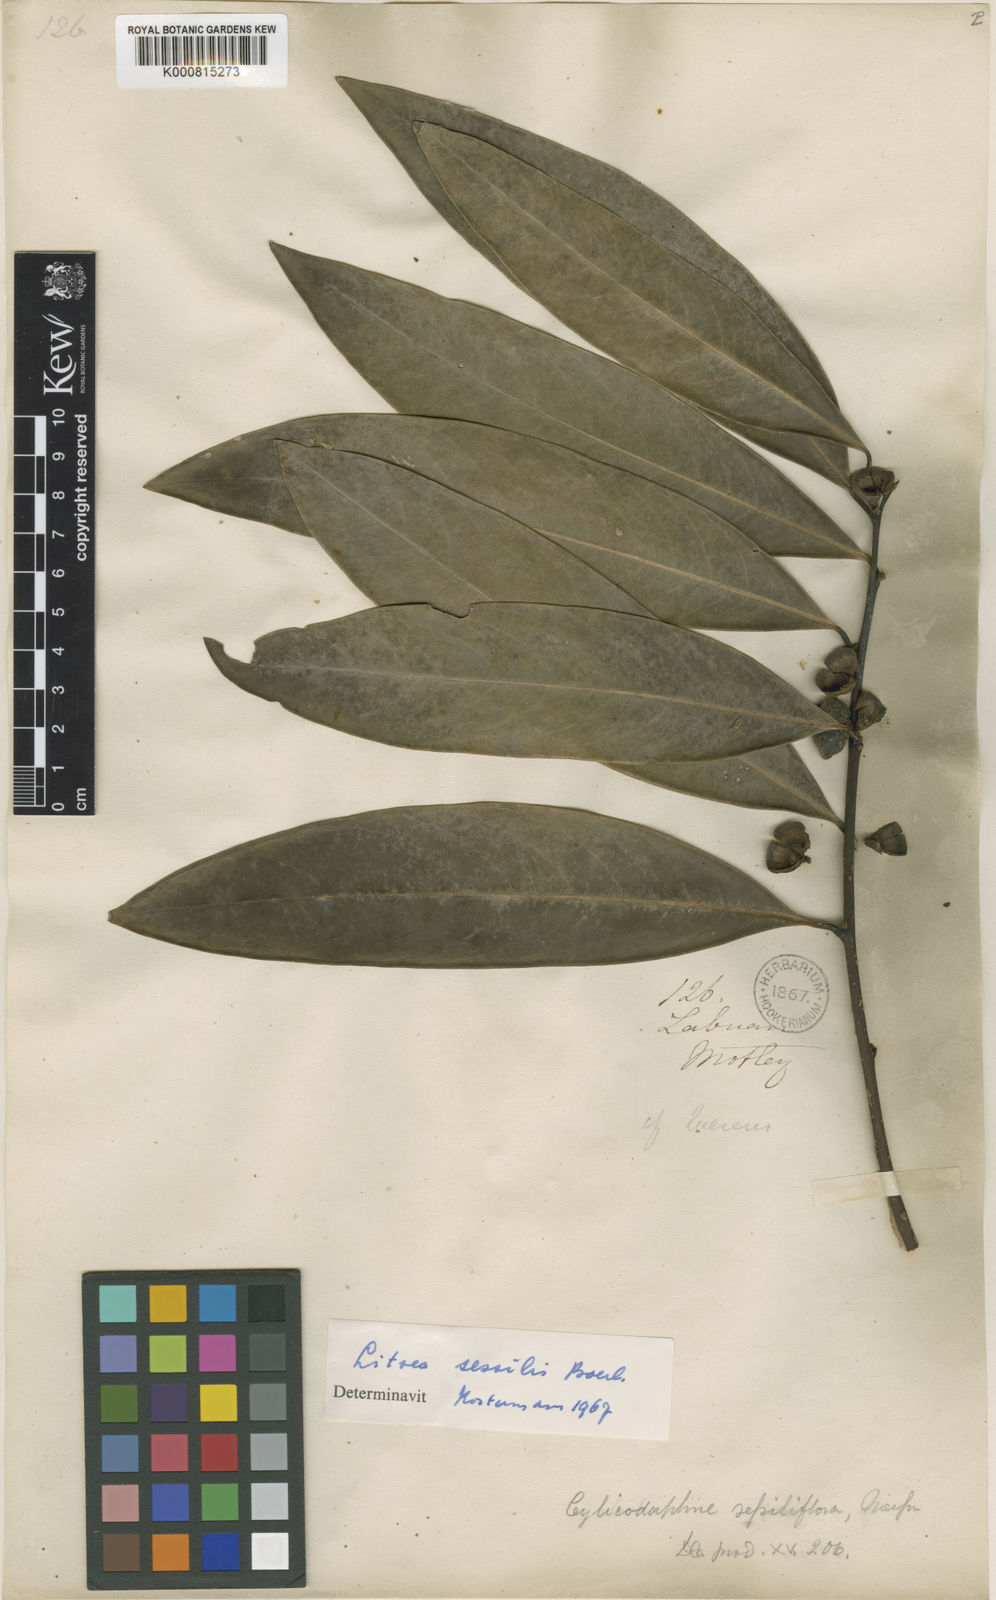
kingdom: Plantae
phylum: Tracheophyta
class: Magnoliopsida
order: Laurales
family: Lauraceae
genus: Litsea
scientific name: Litsea sessilis
